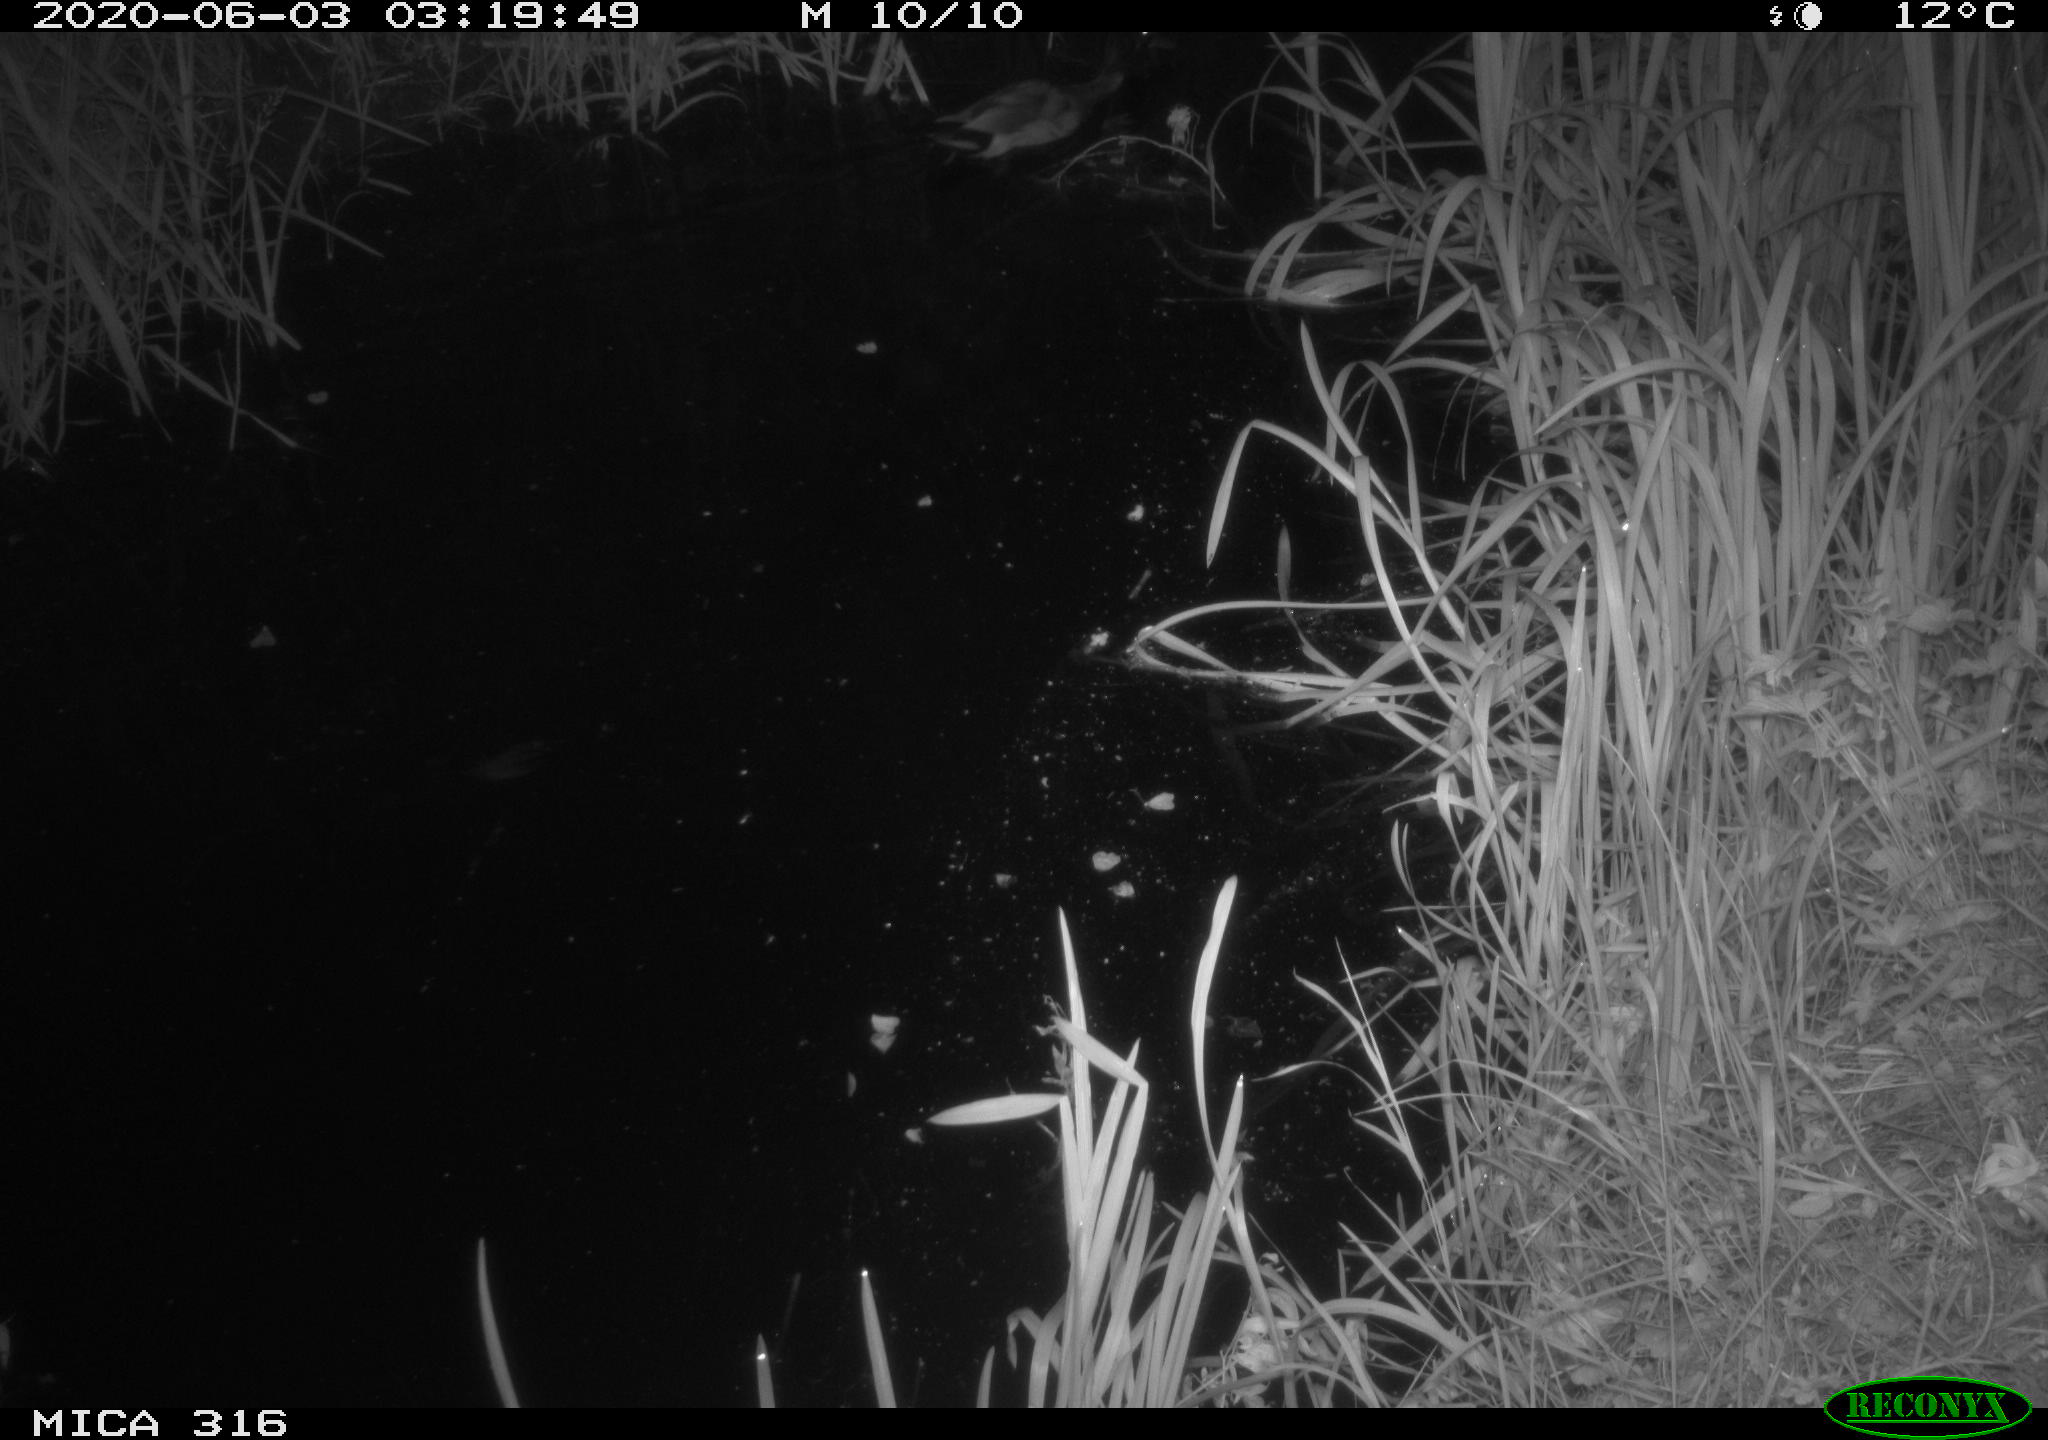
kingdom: Animalia
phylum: Chordata
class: Aves
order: Anseriformes
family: Anatidae
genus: Anas
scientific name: Anas platyrhynchos
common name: Mallard
